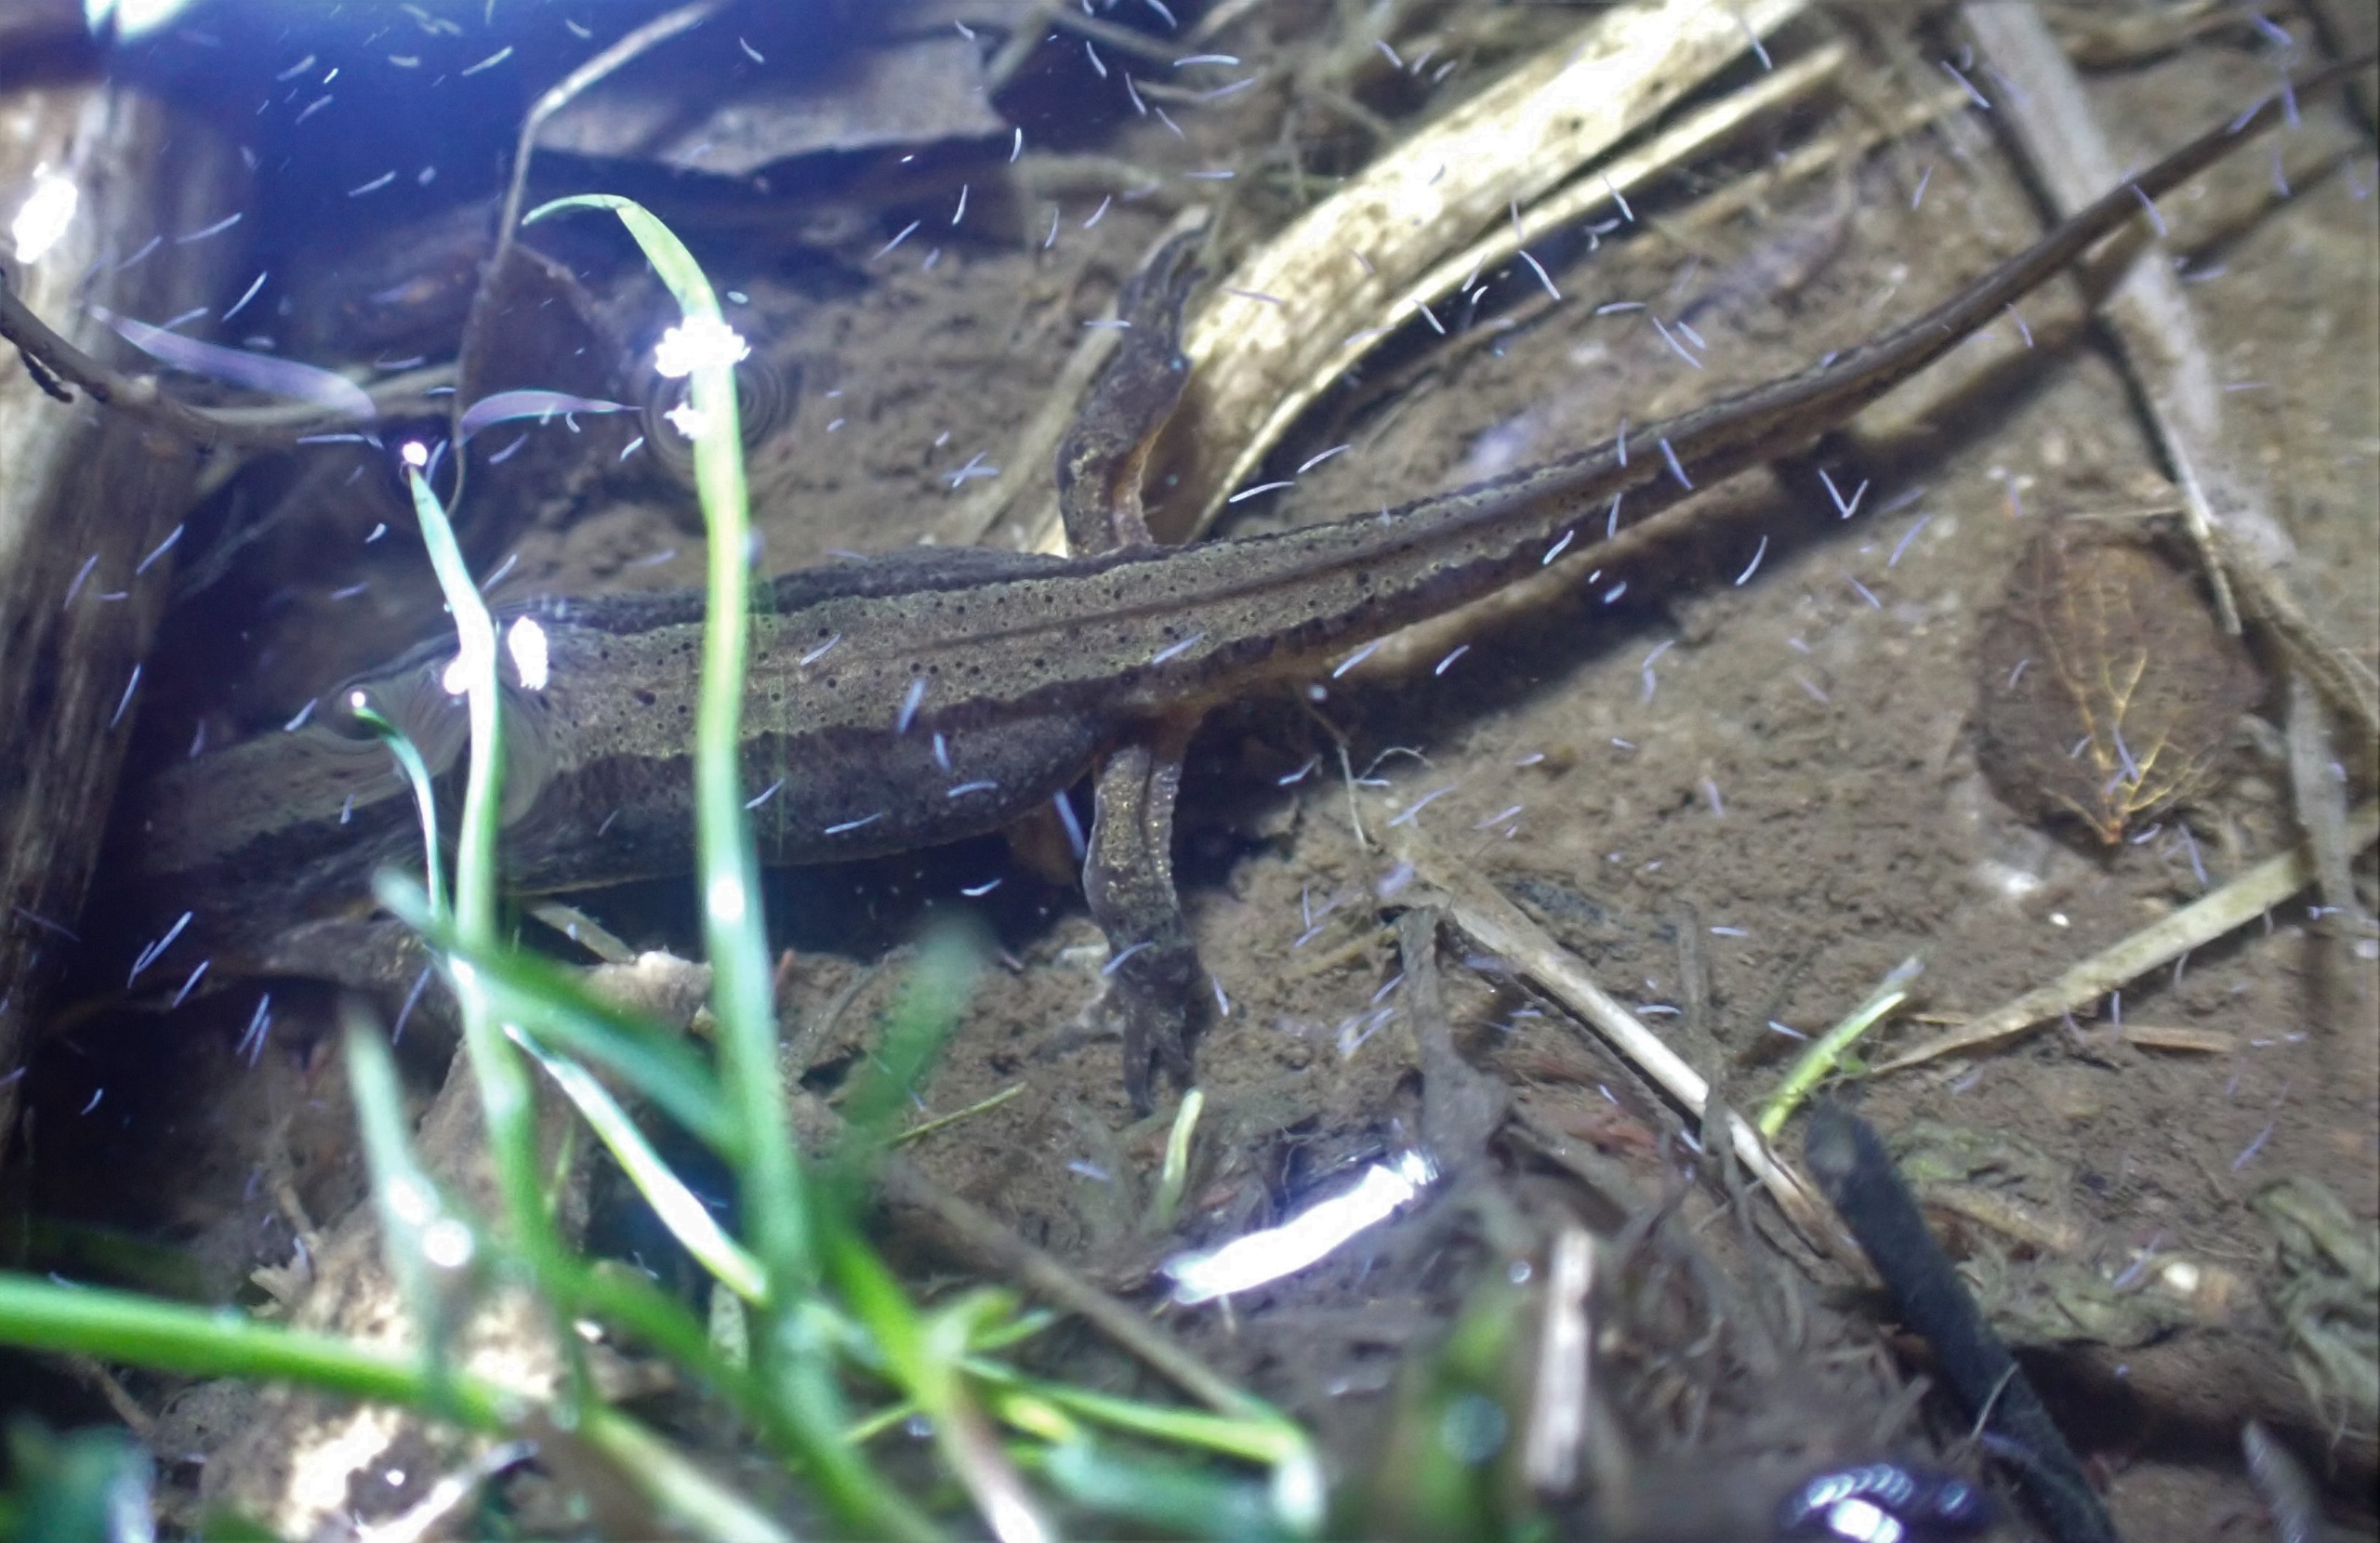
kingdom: Animalia
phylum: Chordata
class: Amphibia
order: Caudata
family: Salamandridae
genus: Lissotriton
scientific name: Lissotriton vulgaris
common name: Lille vandsalamander
